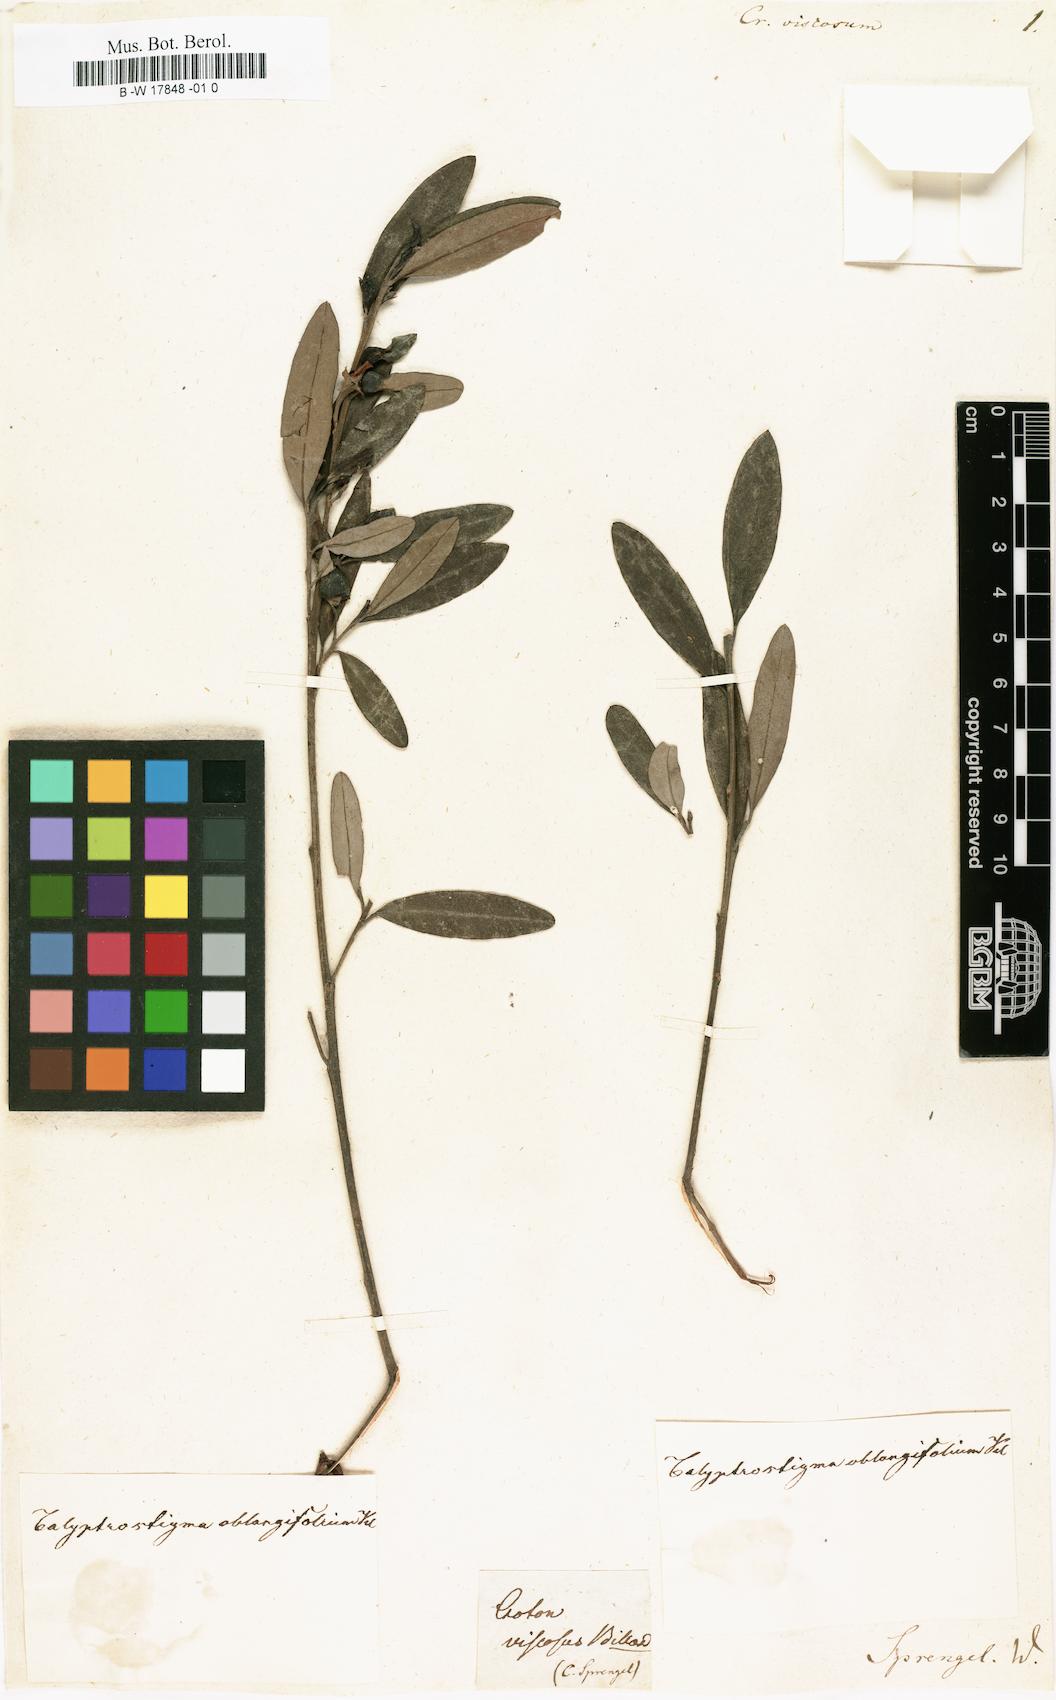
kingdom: Plantae
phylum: Tracheophyta
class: Magnoliopsida
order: Malpighiales
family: Euphorbiaceae
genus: Beyeria
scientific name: Beyeria viscosa
